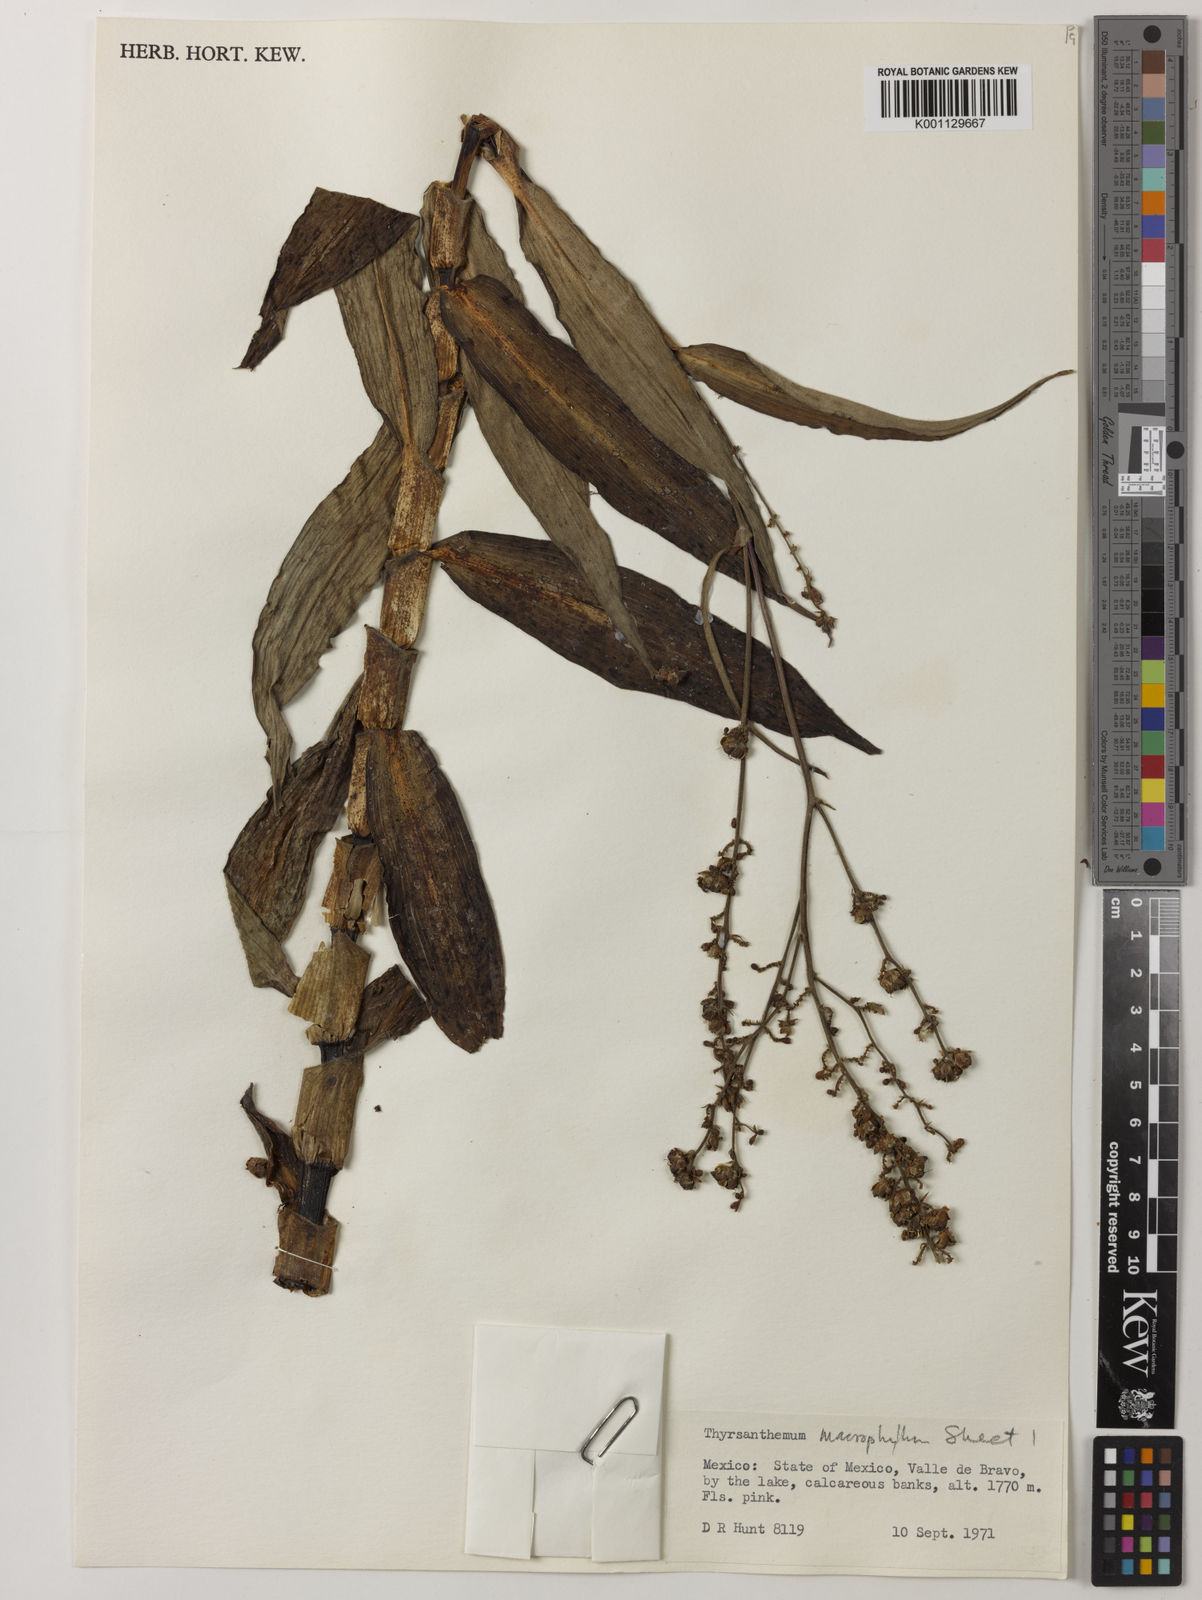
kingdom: Plantae
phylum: Tracheophyta
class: Liliopsida
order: Commelinales
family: Commelinaceae
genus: Thyrsanthemum
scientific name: Thyrsanthemum longifolium
